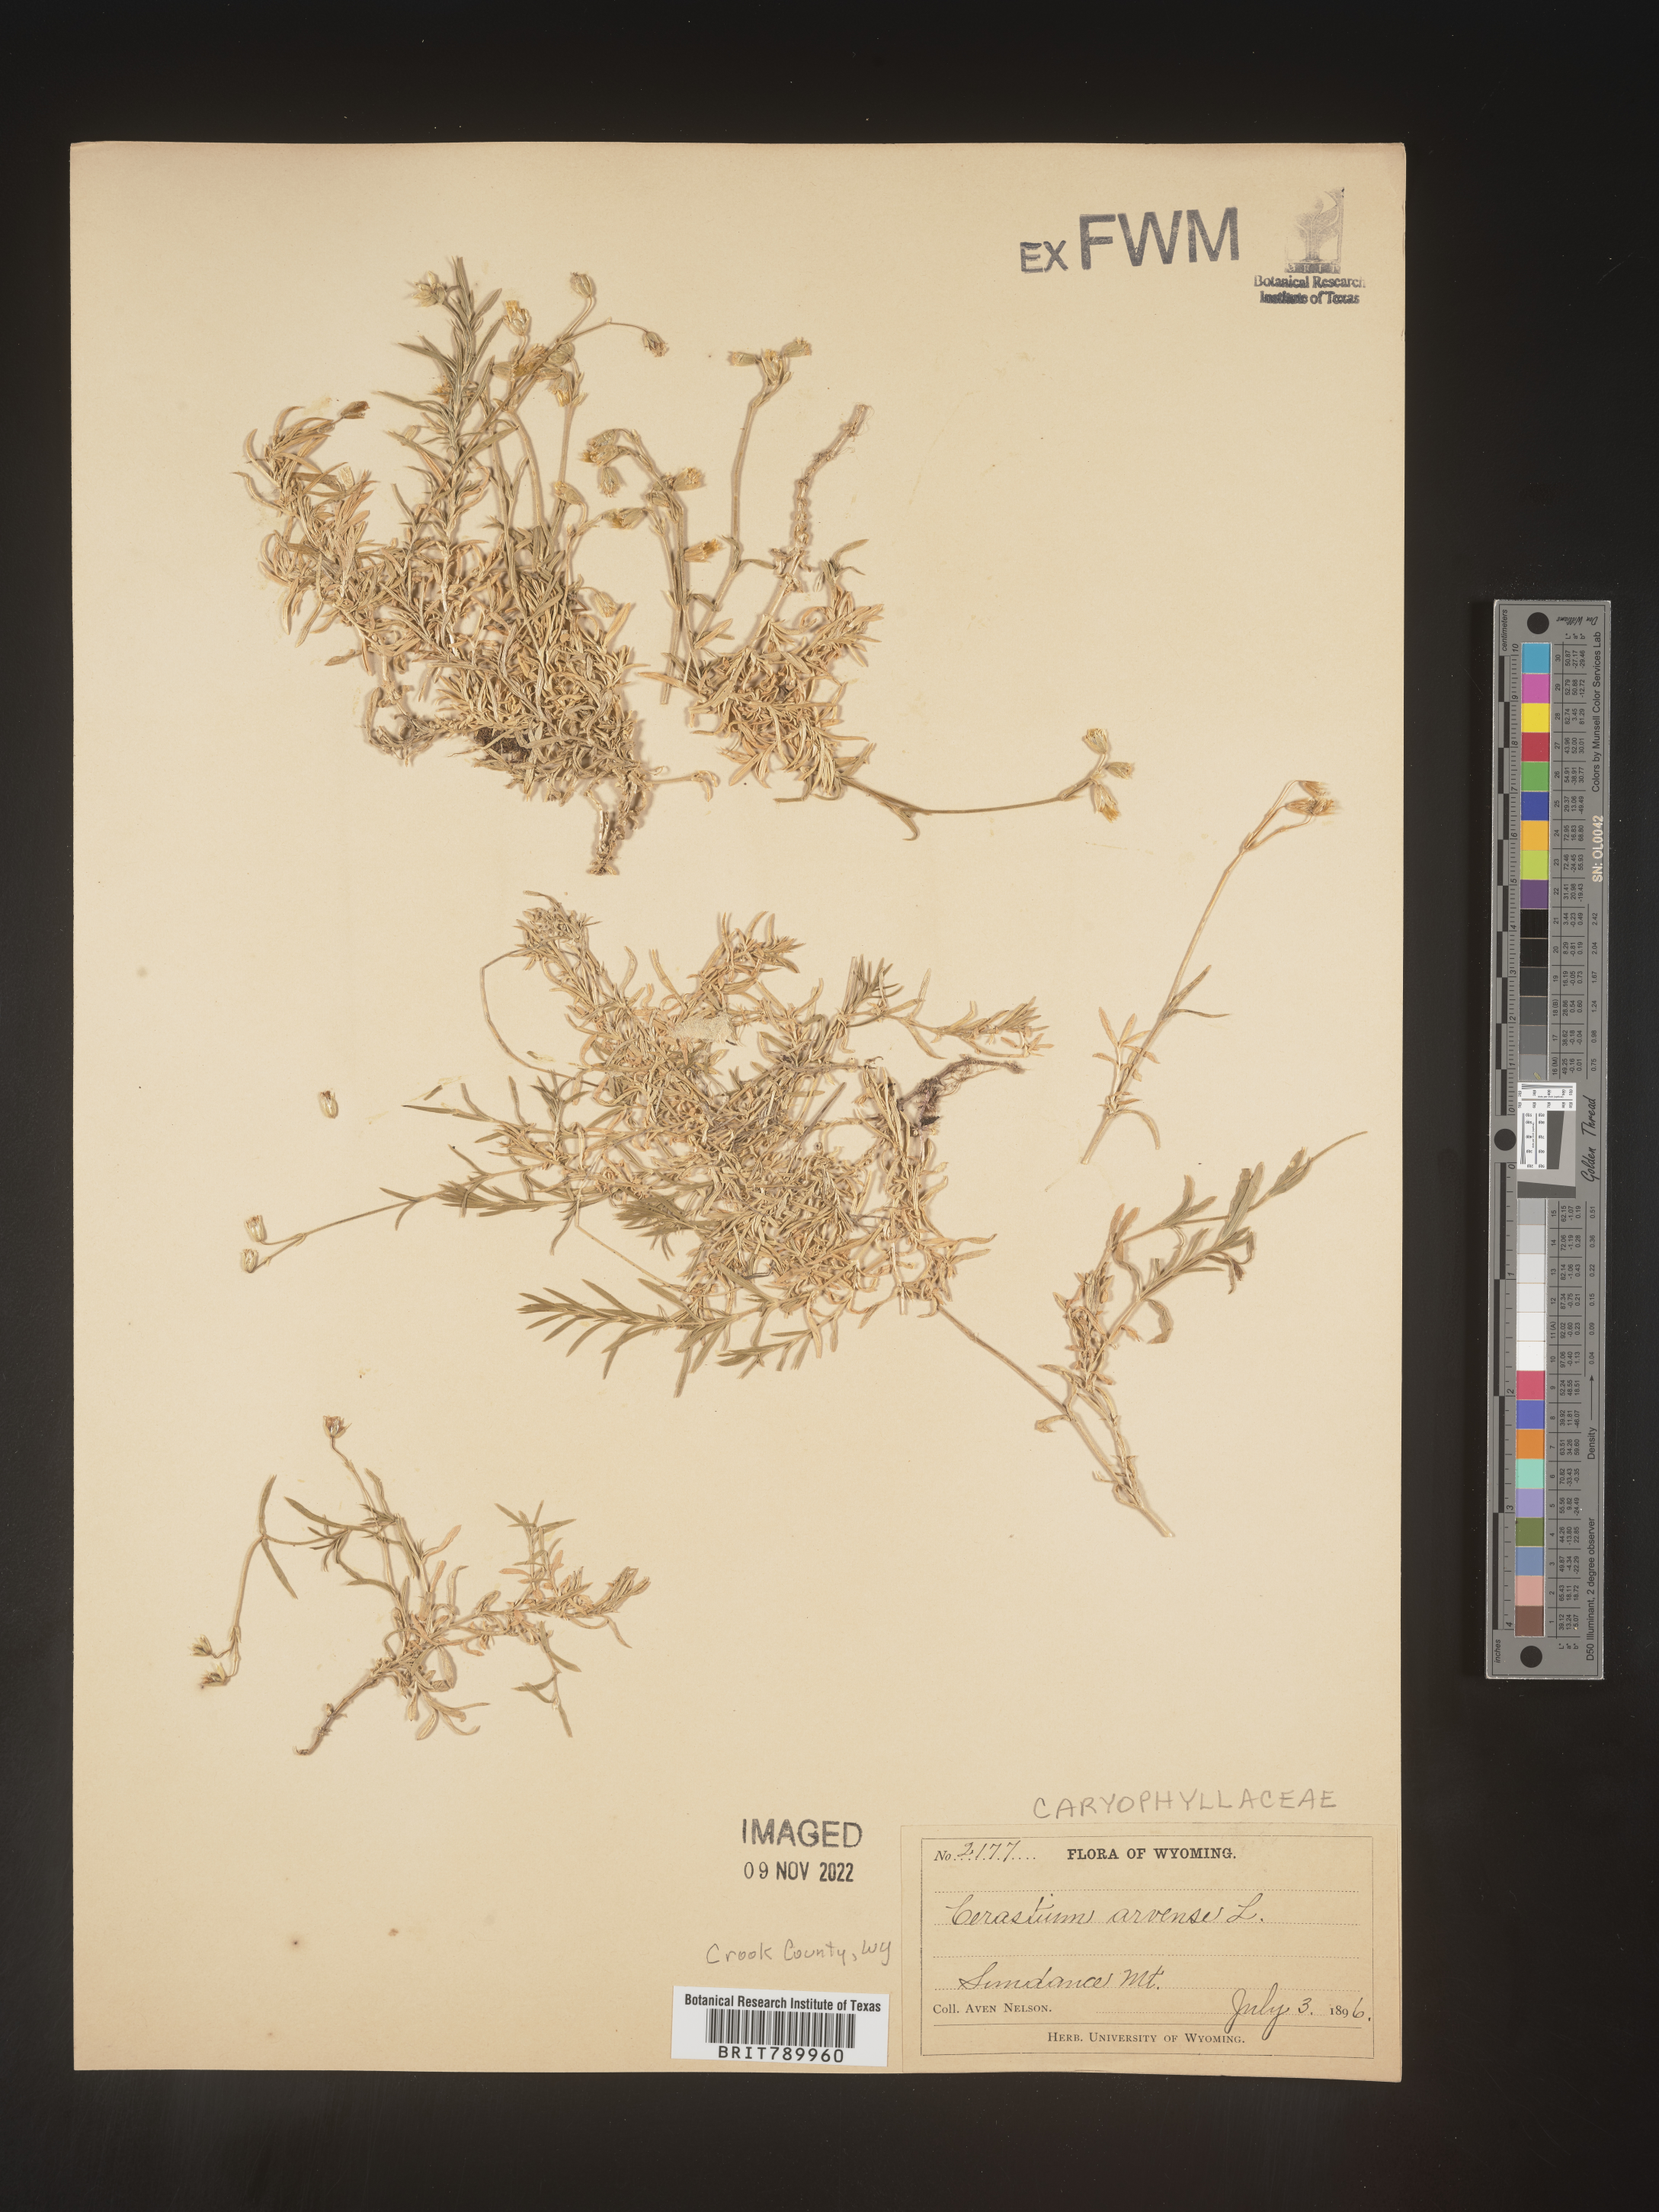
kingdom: Plantae
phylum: Tracheophyta
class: Magnoliopsida
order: Caryophyllales
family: Caryophyllaceae
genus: Cerastium
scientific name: Cerastium arvense
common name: Field mouse-ear
